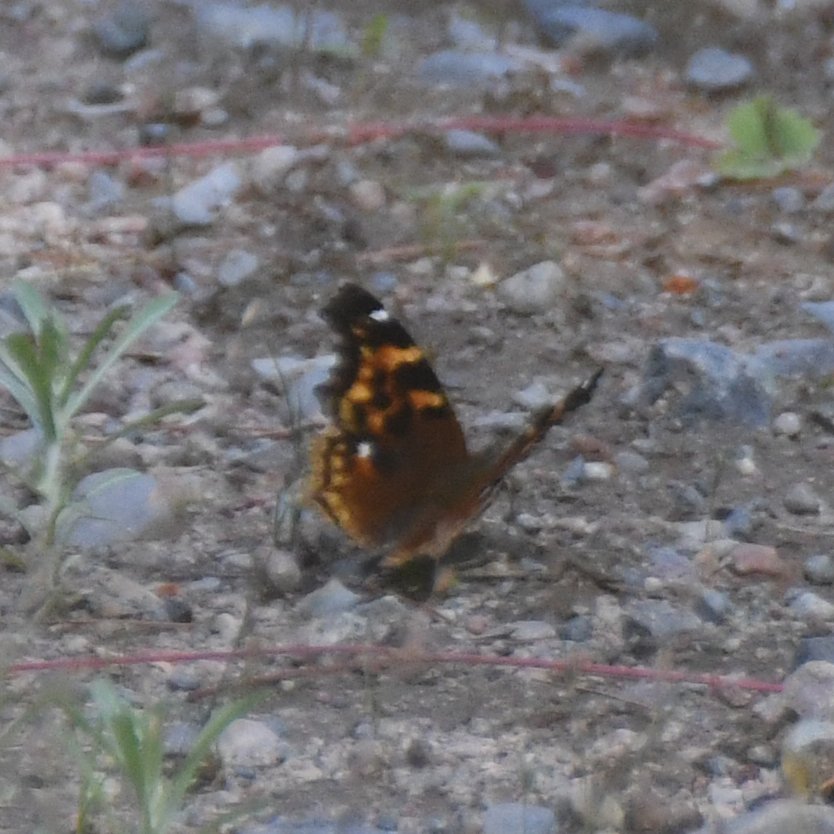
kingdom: Animalia
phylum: Arthropoda
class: Insecta
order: Lepidoptera
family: Nymphalidae
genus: Polygonia
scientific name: Polygonia vaualbum
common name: Compton Tortoiseshell
